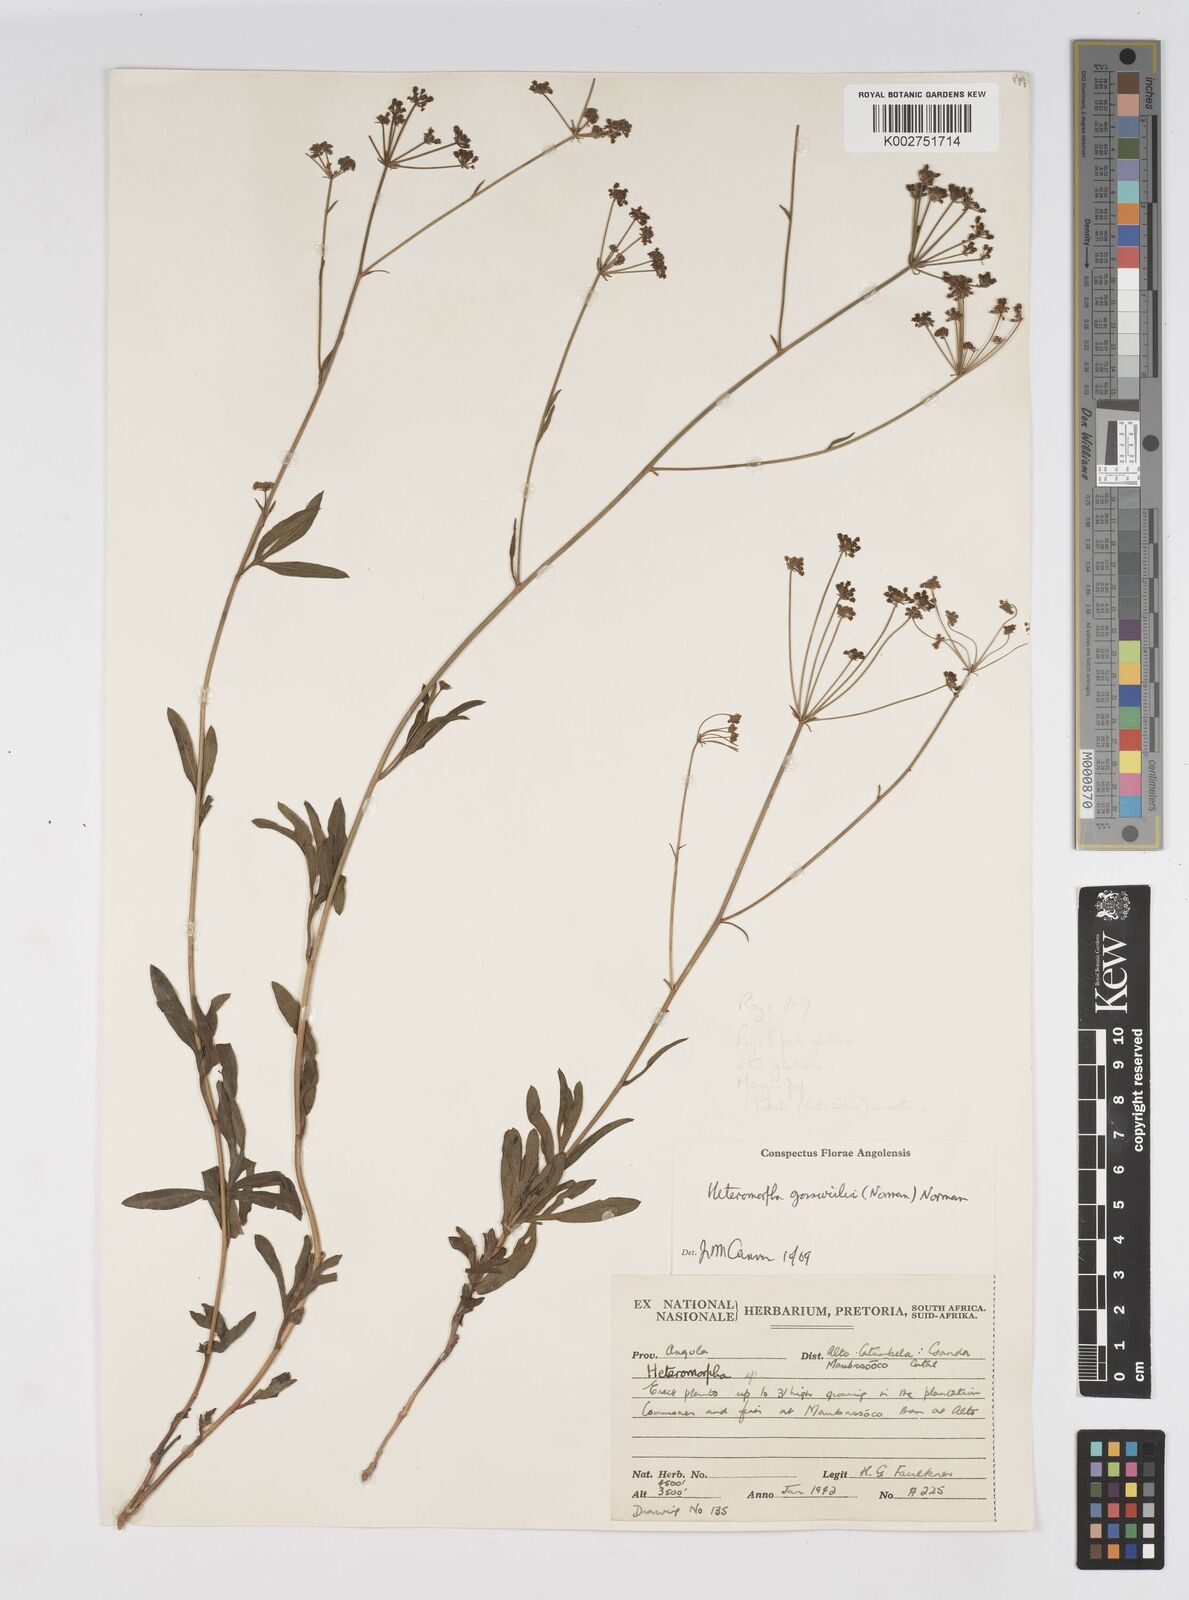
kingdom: Plantae
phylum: Tracheophyta
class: Magnoliopsida
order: Apiales
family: Apiaceae
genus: Heteromorpha
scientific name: Heteromorpha gossweileri
